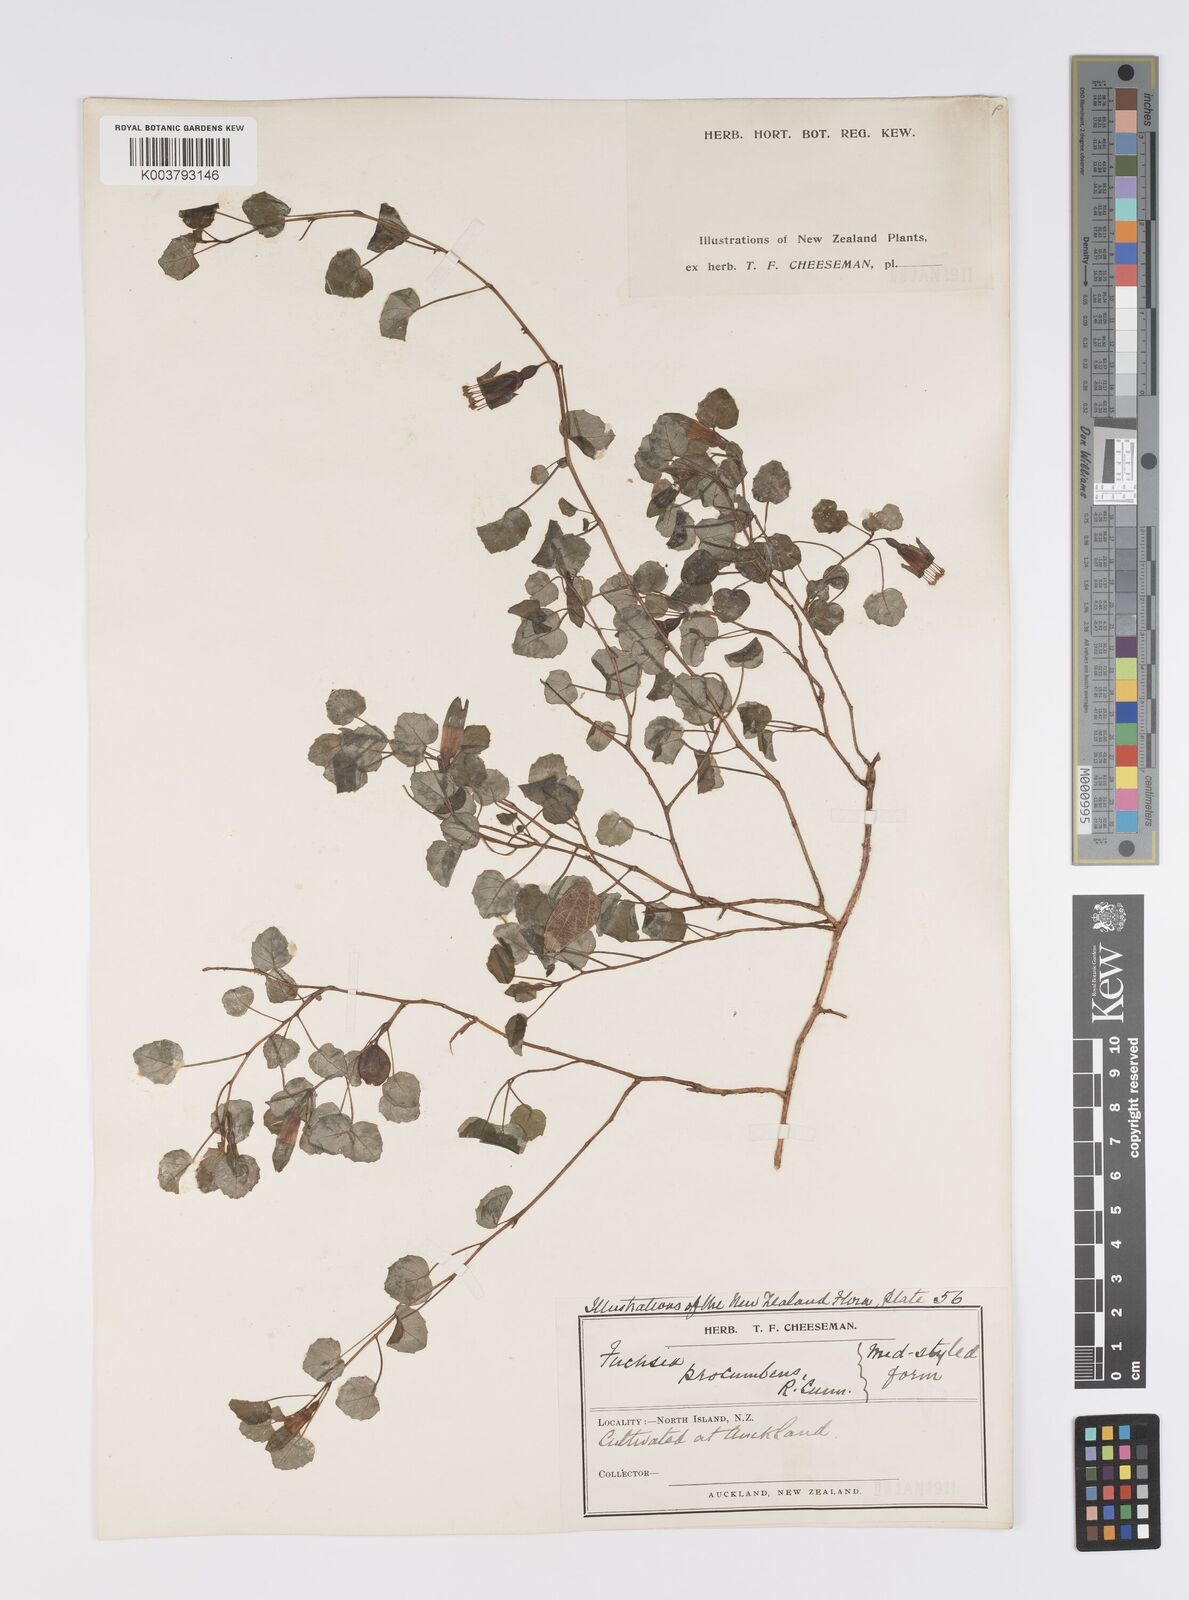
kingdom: Plantae
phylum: Tracheophyta
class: Magnoliopsida
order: Myrtales
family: Onagraceae
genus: Fuchsia
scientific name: Fuchsia procumbens
